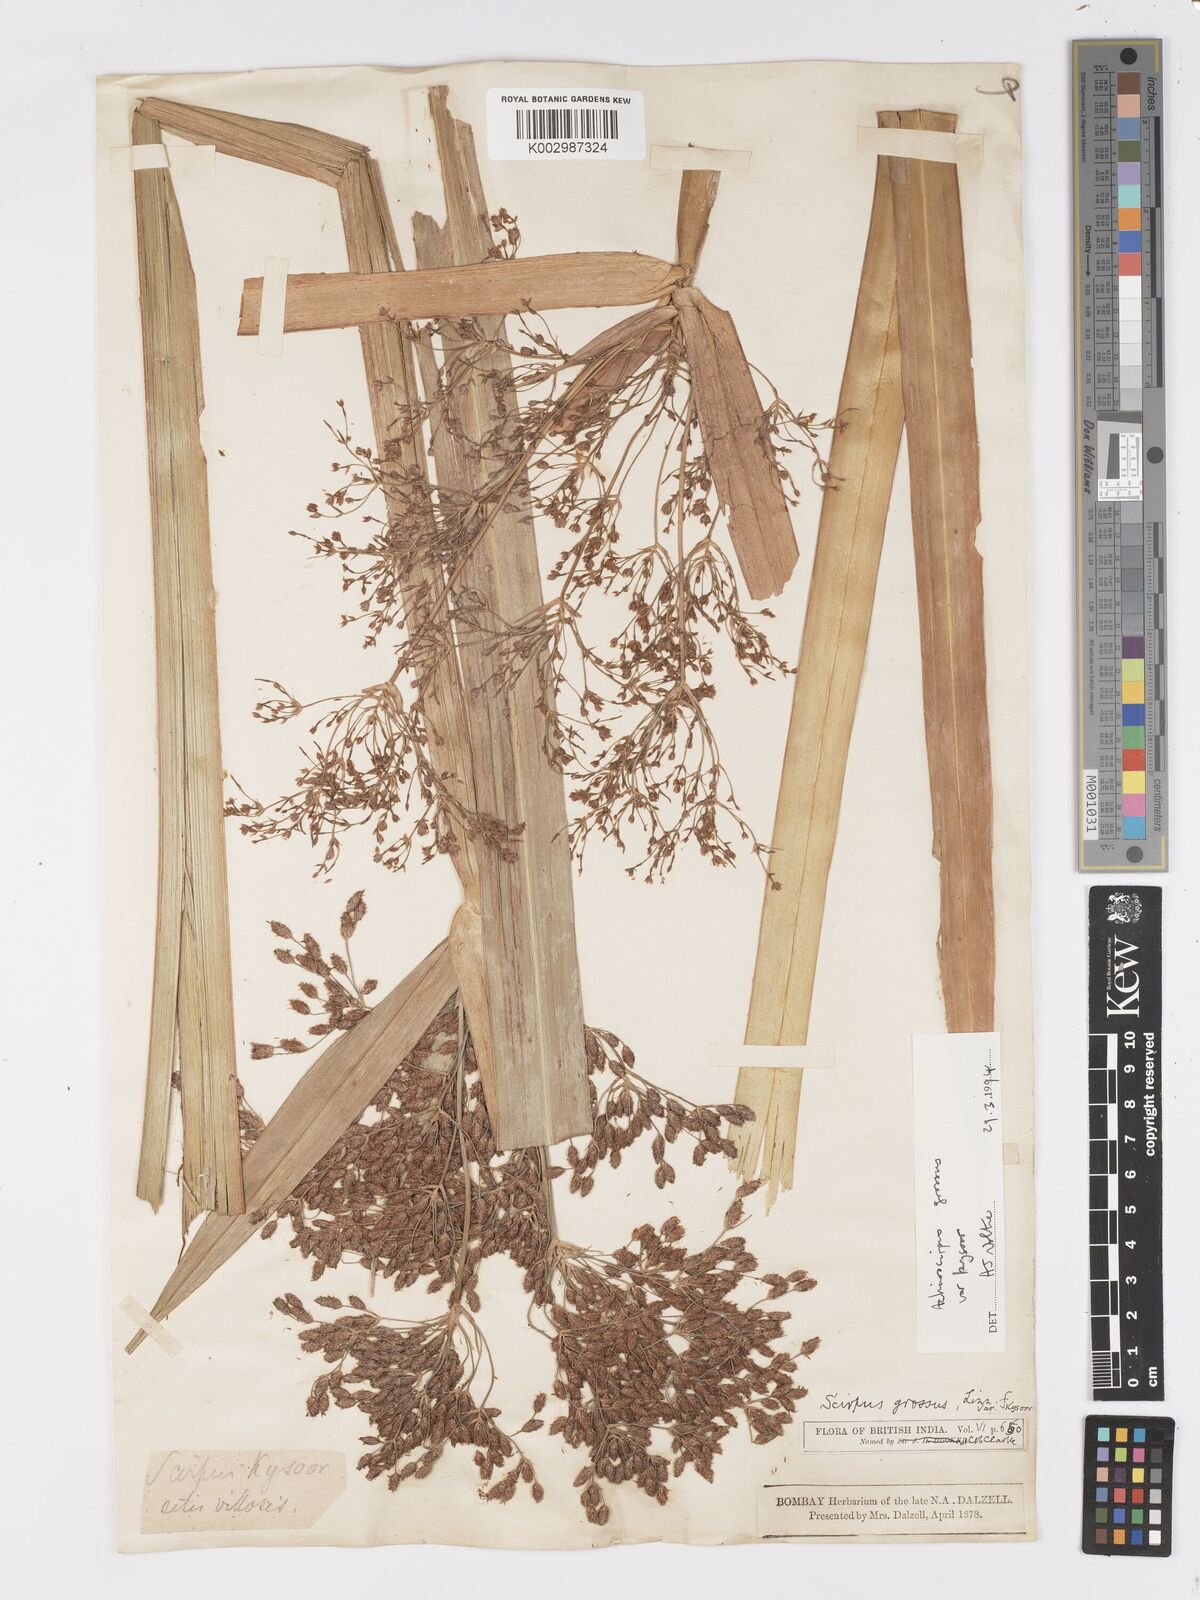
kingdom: Plantae
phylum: Tracheophyta
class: Liliopsida
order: Poales
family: Cyperaceae
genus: Actinoscirpus
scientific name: Actinoscirpus grossus
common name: Giant bur rush
